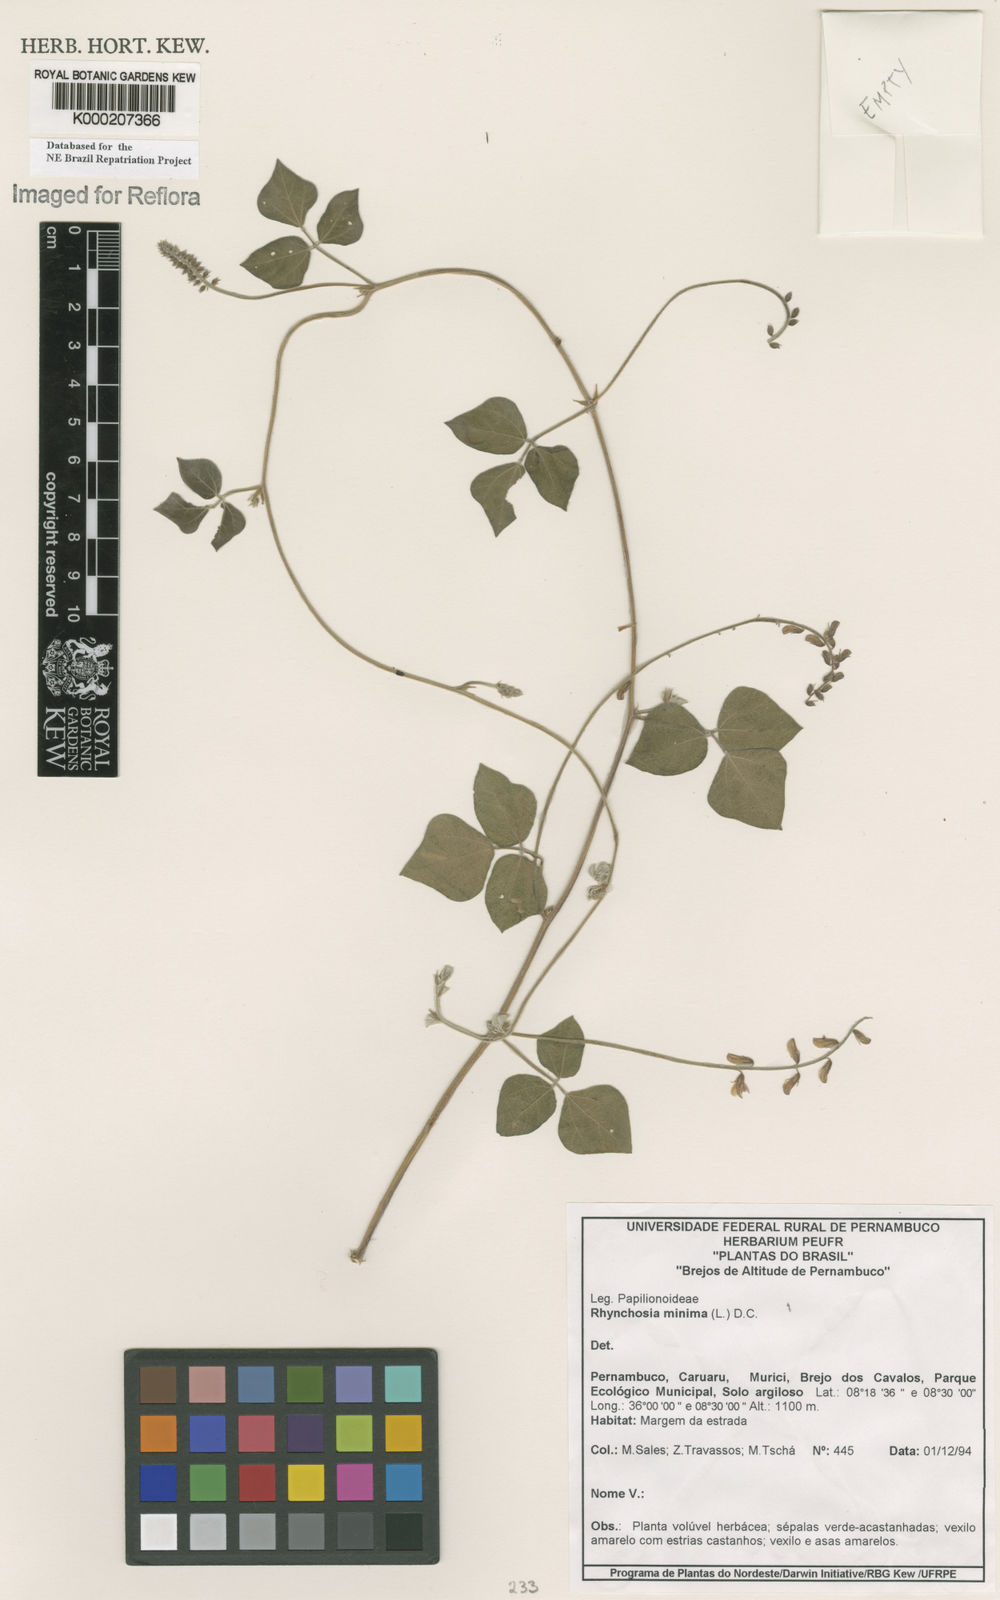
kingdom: Plantae
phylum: Tracheophyta
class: Magnoliopsida
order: Fabales
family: Fabaceae
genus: Rhynchosia
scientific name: Rhynchosia minima
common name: Least snoutbean
